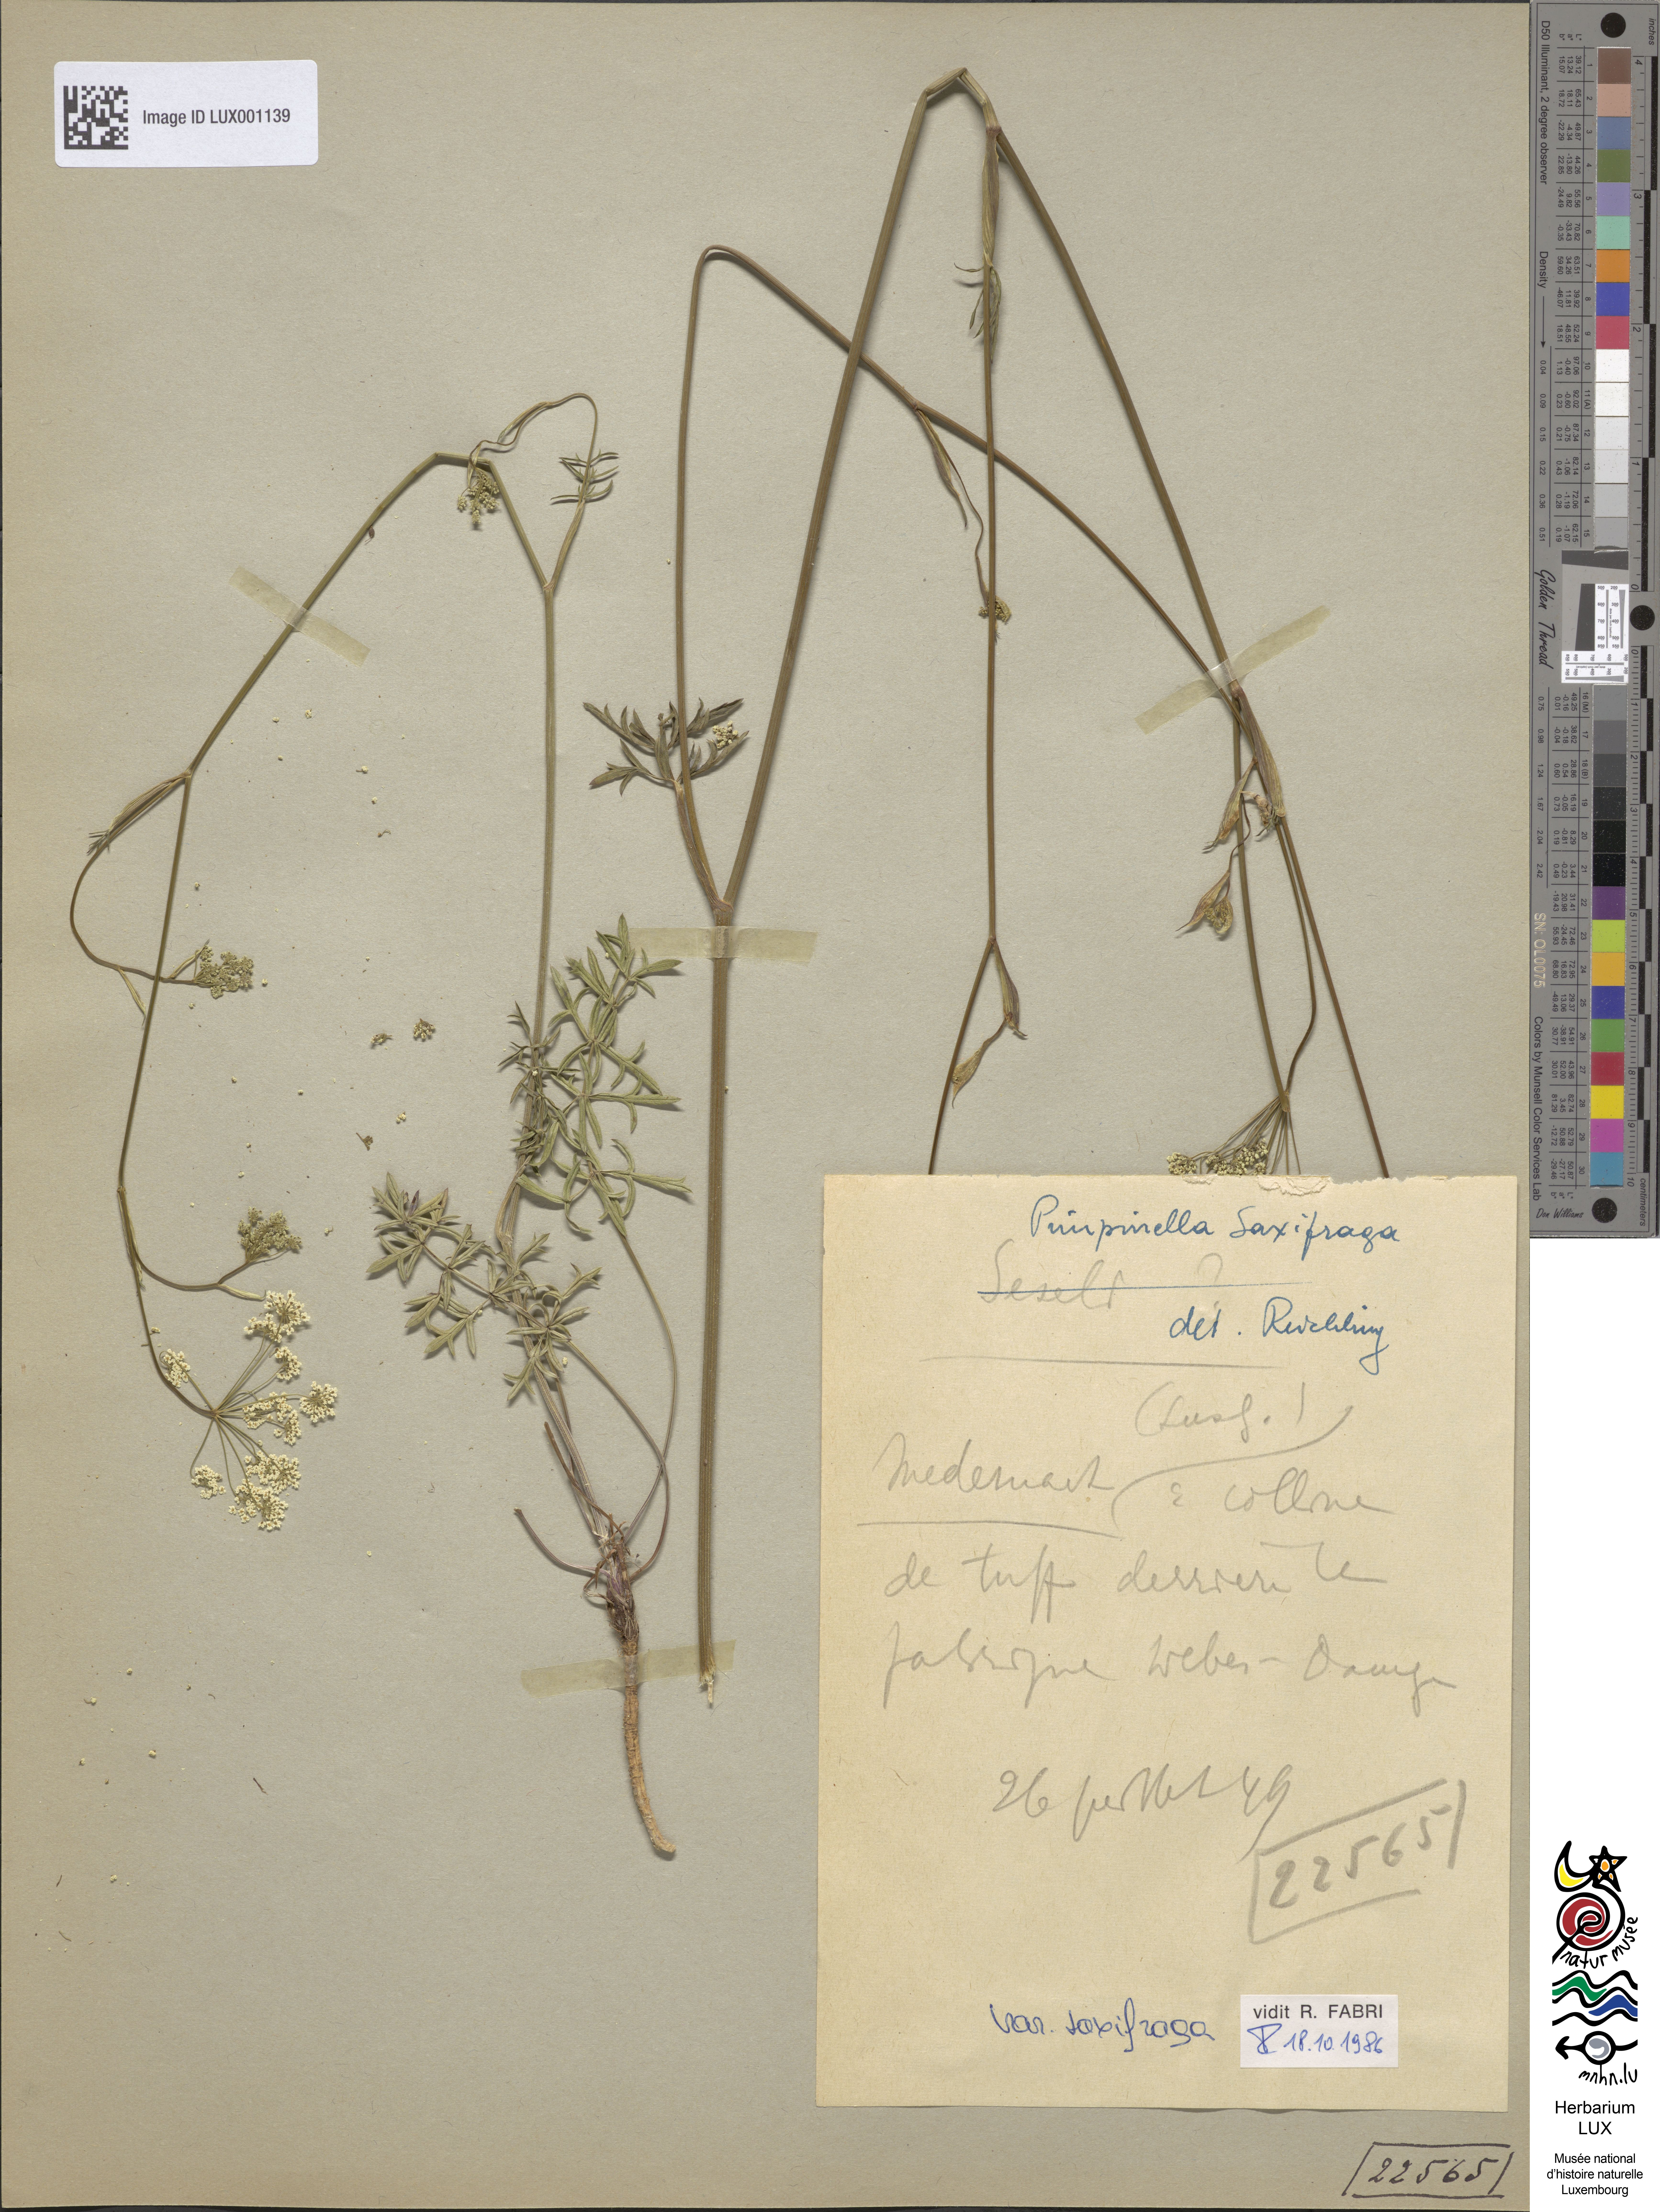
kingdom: Plantae
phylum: Tracheophyta
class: Magnoliopsida
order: Apiales
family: Apiaceae
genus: Pimpinella
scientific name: Pimpinella saxifraga
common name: Burnet-saxifrage
